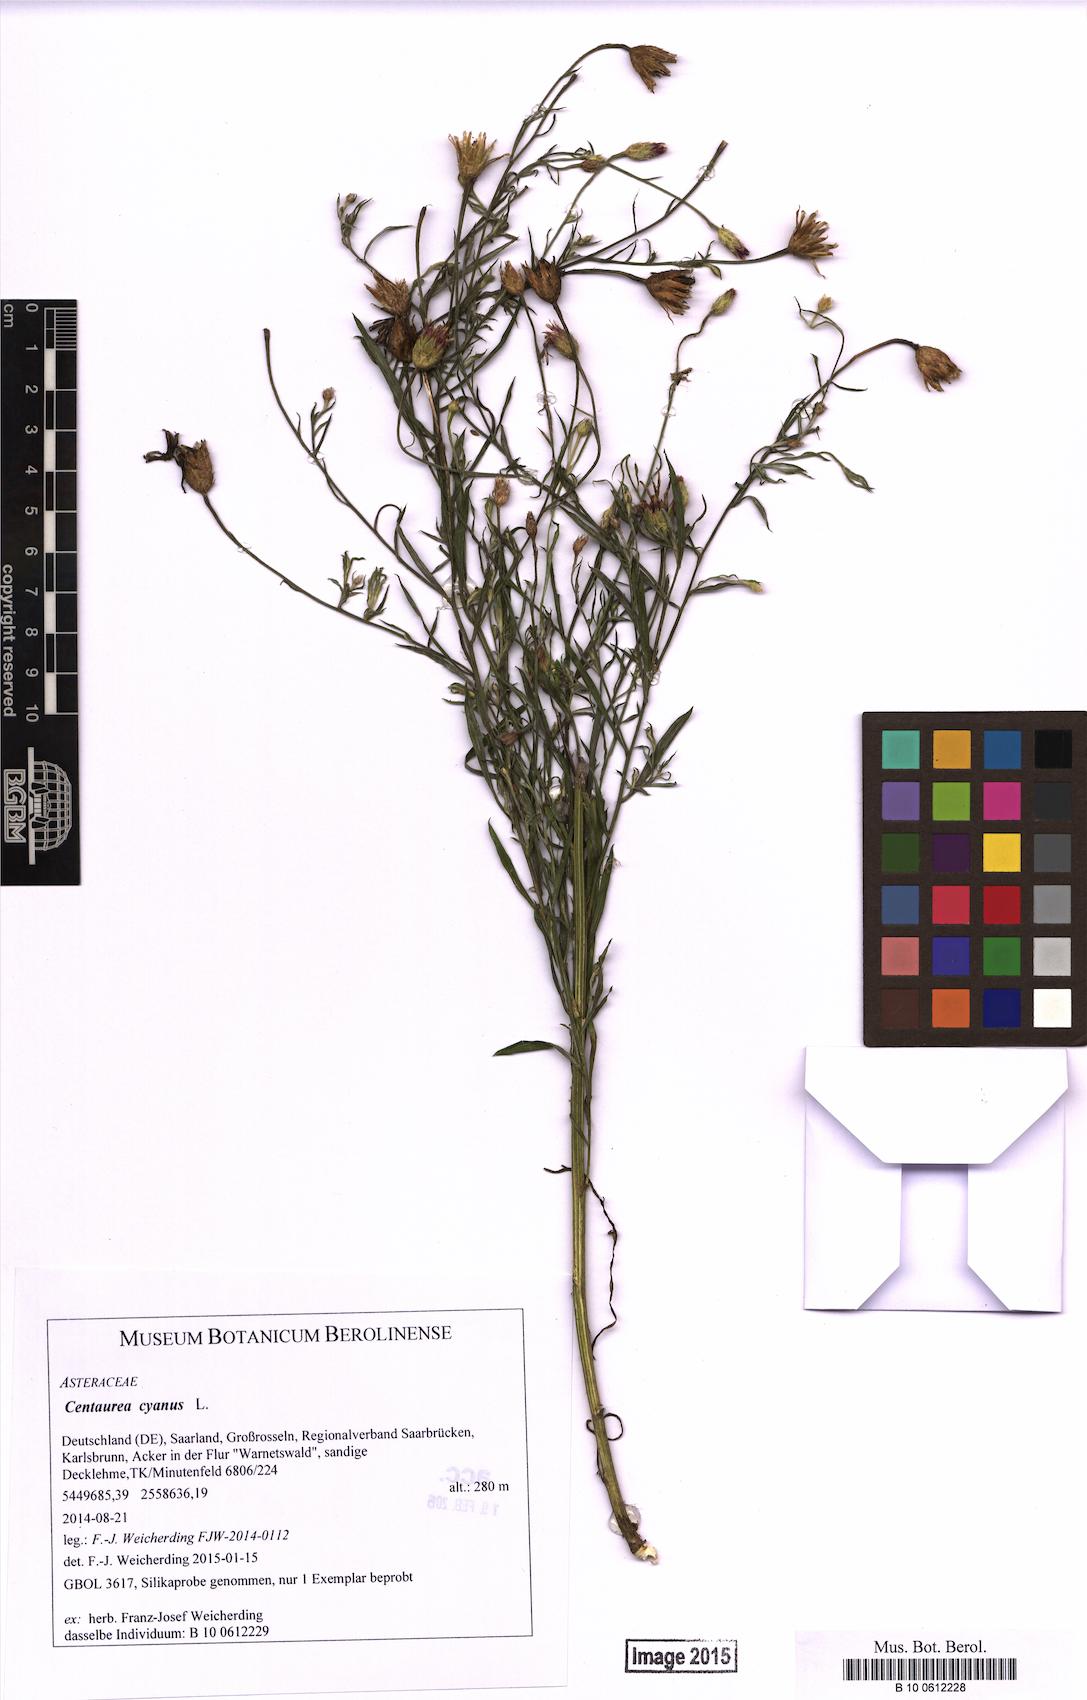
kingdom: Plantae
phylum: Tracheophyta
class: Magnoliopsida
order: Asterales
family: Asteraceae
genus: Centaurea
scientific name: Centaurea cyanus
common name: Cornflower
